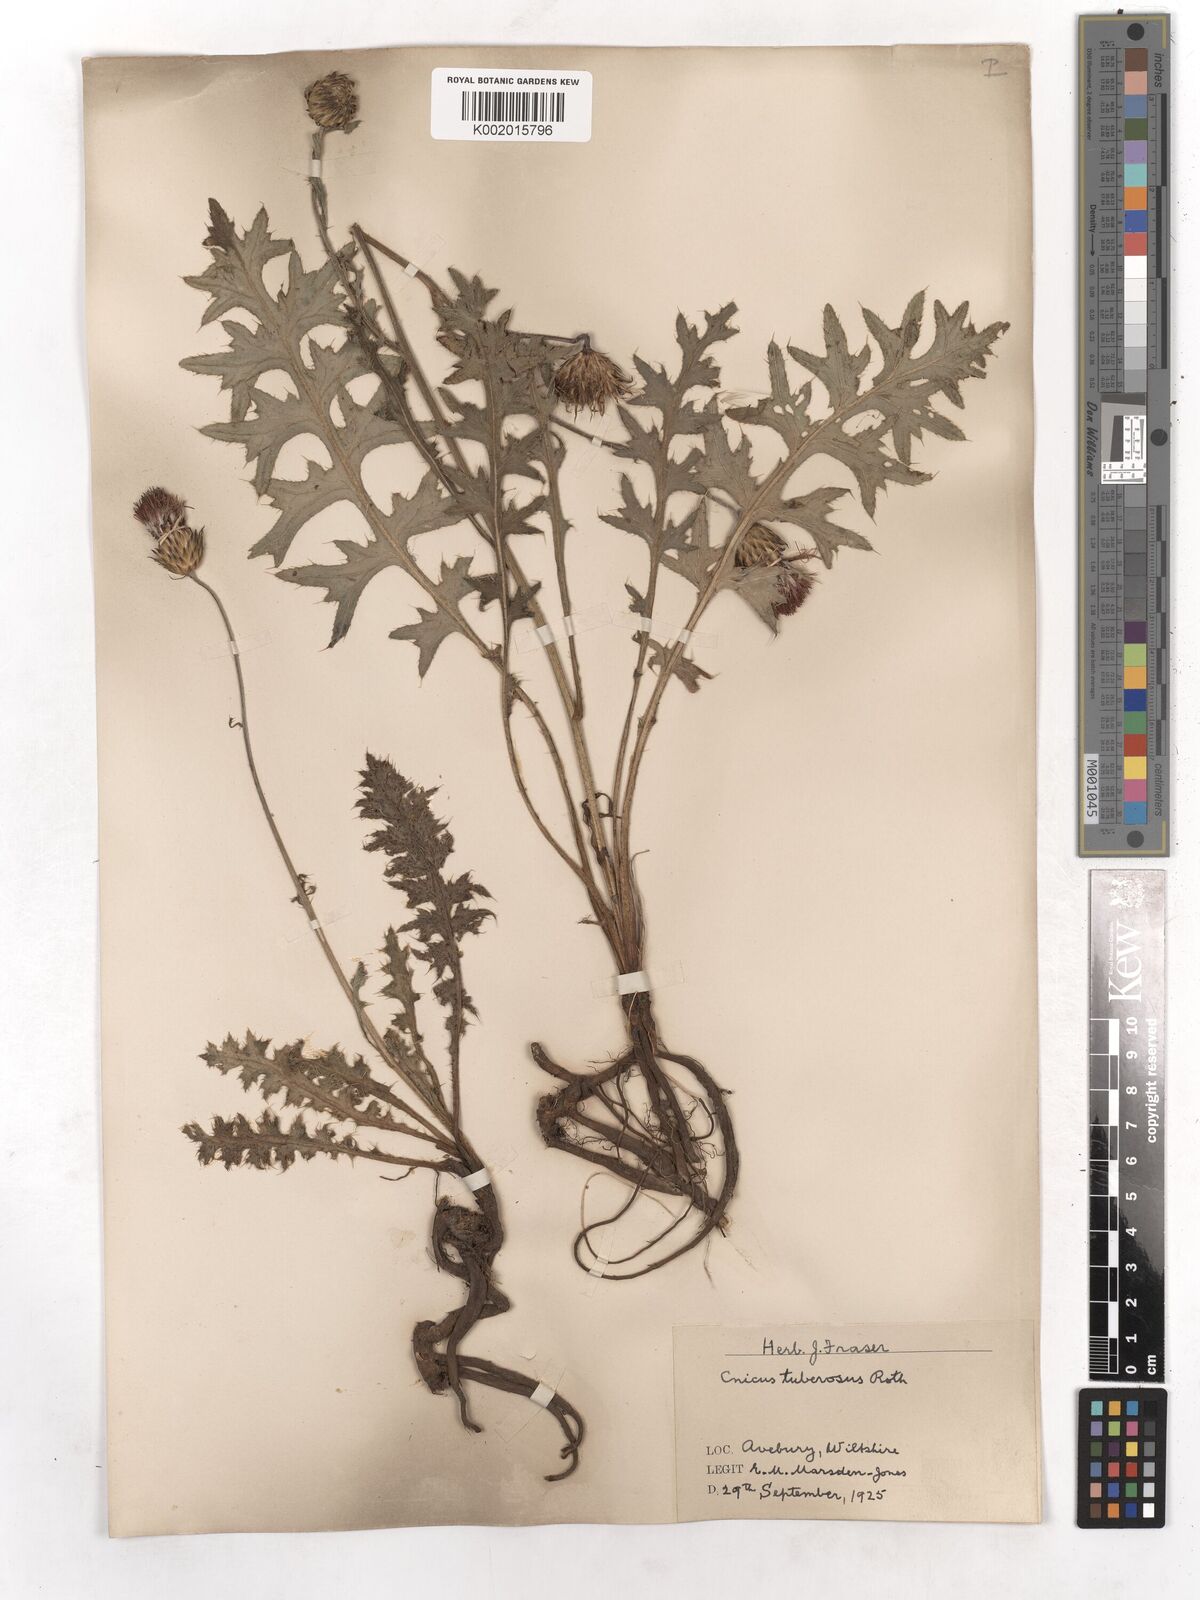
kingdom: Plantae
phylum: Tracheophyta
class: Magnoliopsida
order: Asterales
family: Asteraceae
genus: Cirsium
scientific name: Cirsium tuberosum
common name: Tuberous thistle
